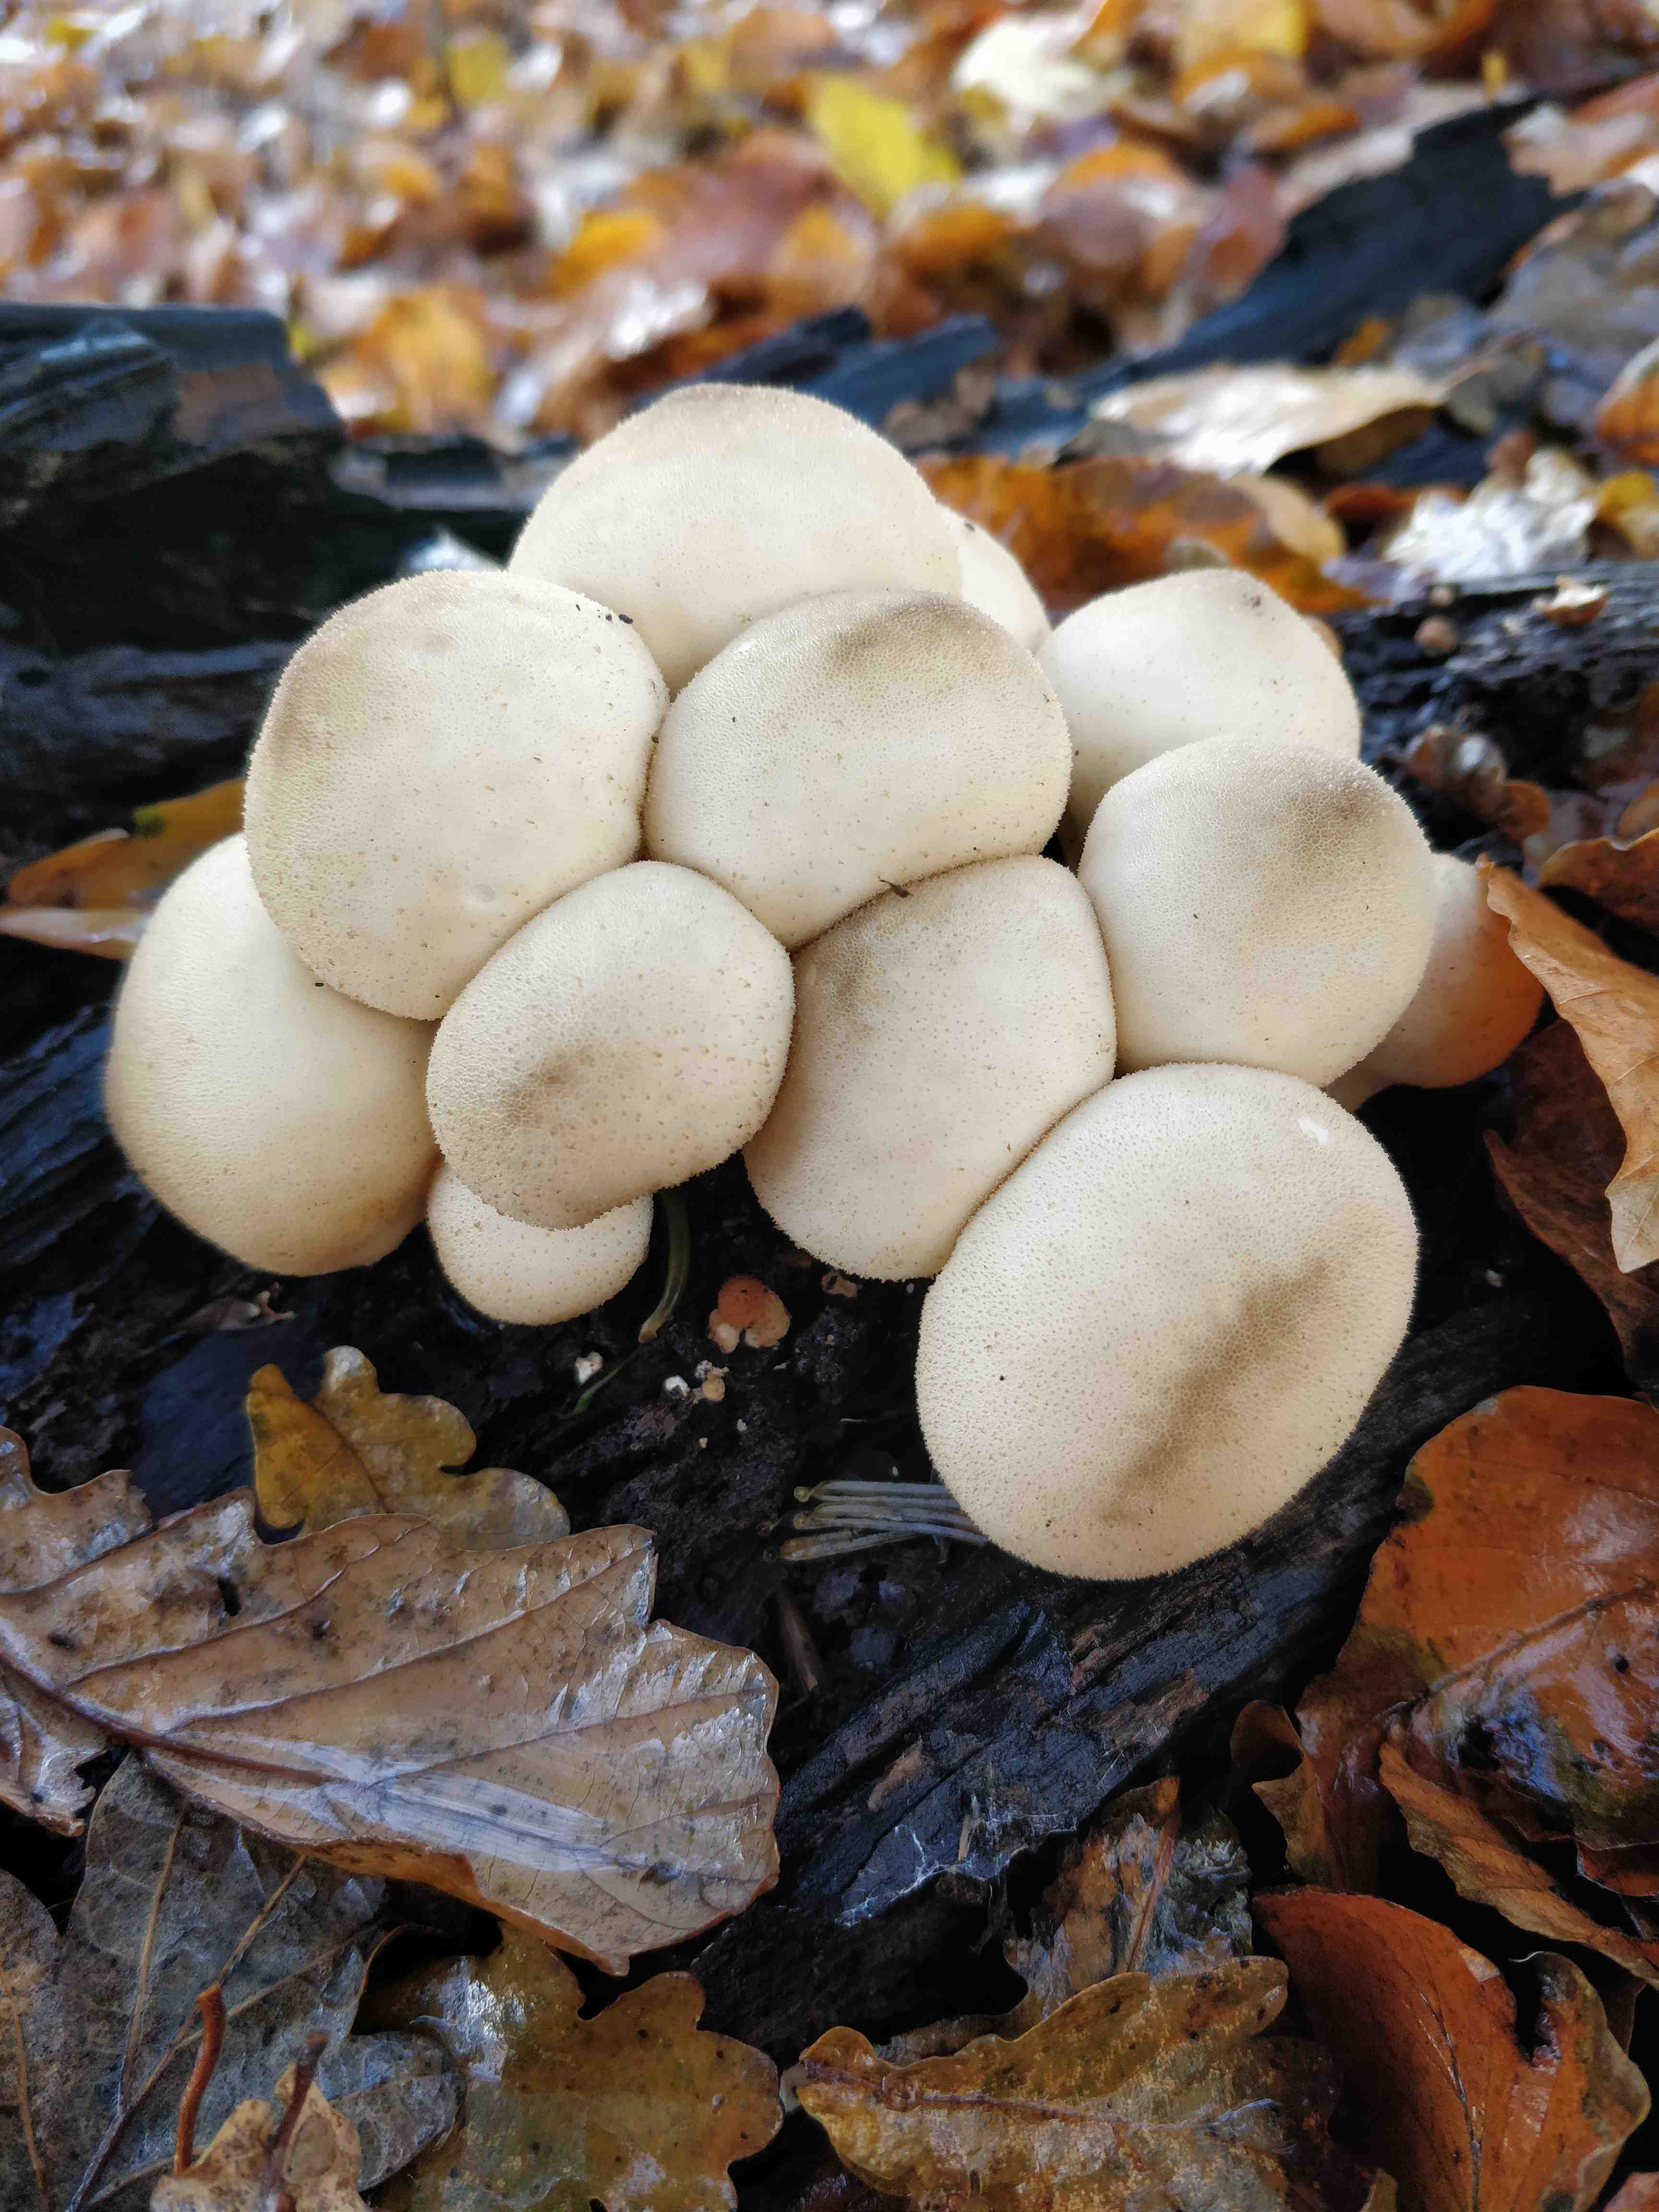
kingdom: Fungi
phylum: Basidiomycota
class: Agaricomycetes
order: Agaricales
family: Lycoperdaceae
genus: Apioperdon
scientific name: Apioperdon pyriforme
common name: pære-støvbold
